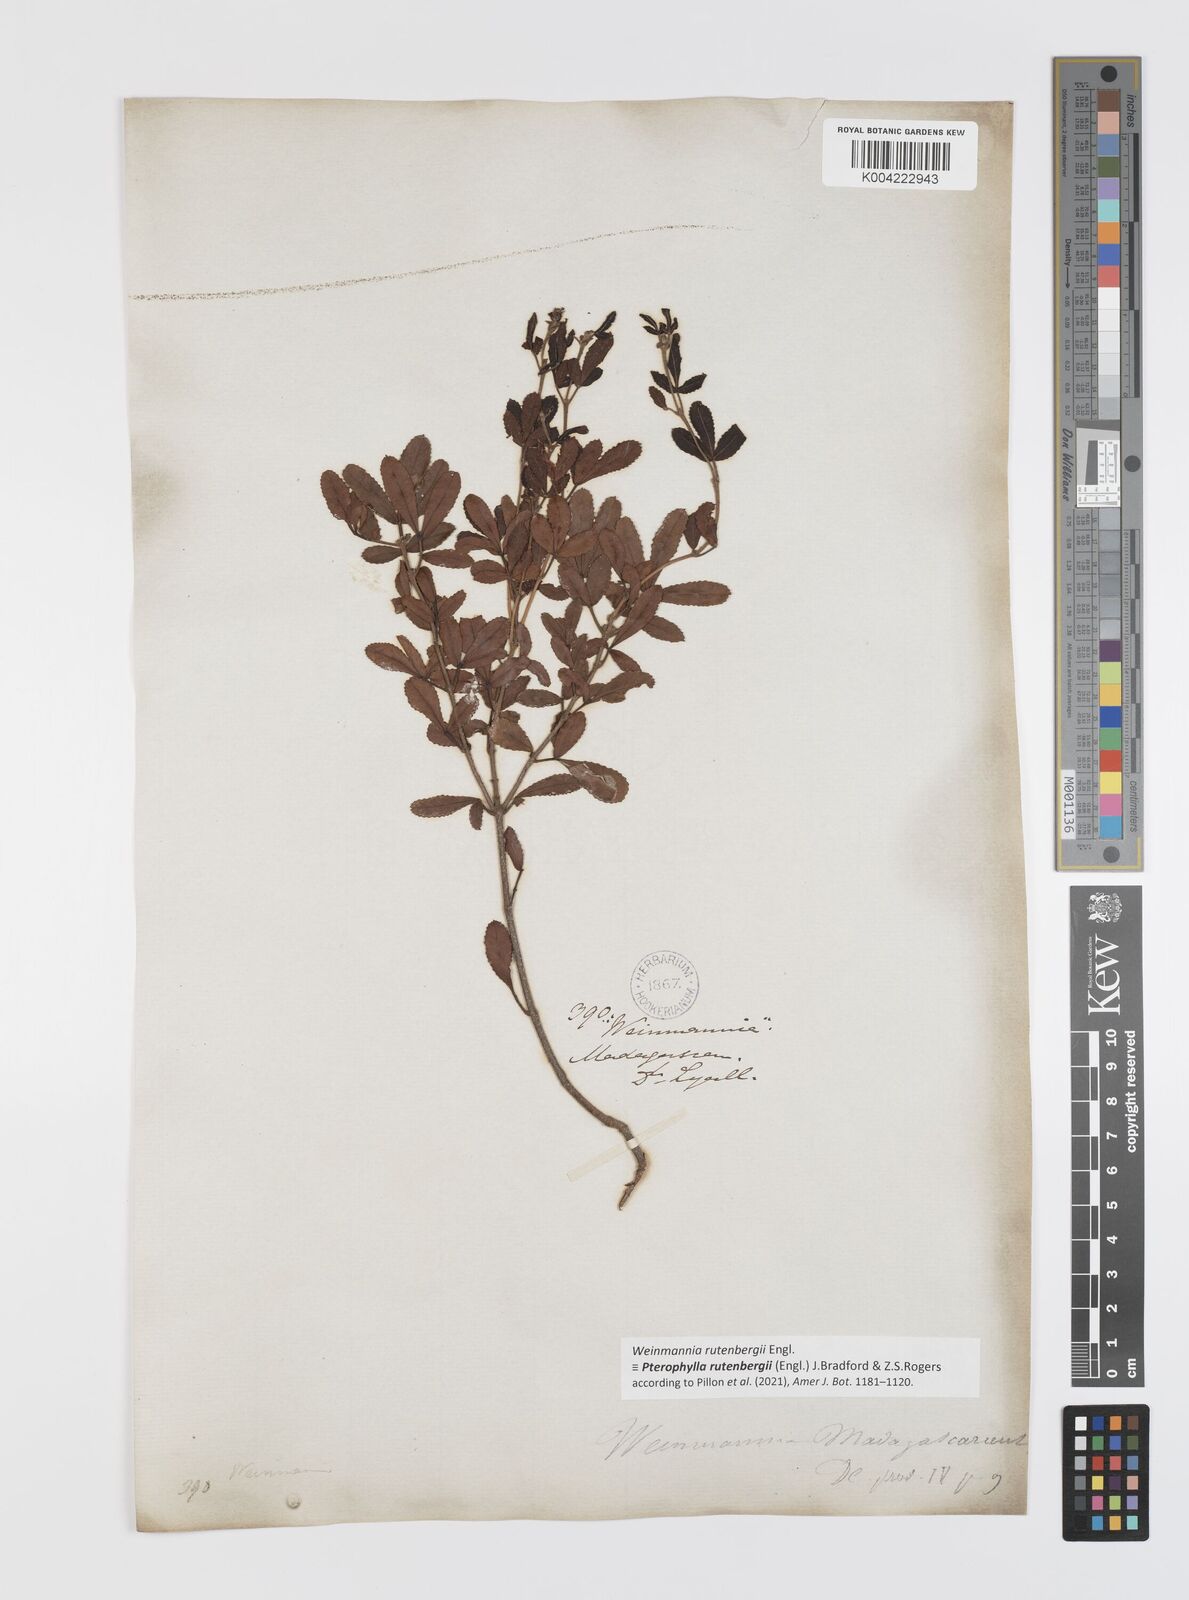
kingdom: Plantae
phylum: Tracheophyta
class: Magnoliopsida
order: Oxalidales
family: Cunoniaceae
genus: Pterophylla
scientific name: Pterophylla rutenbergii
